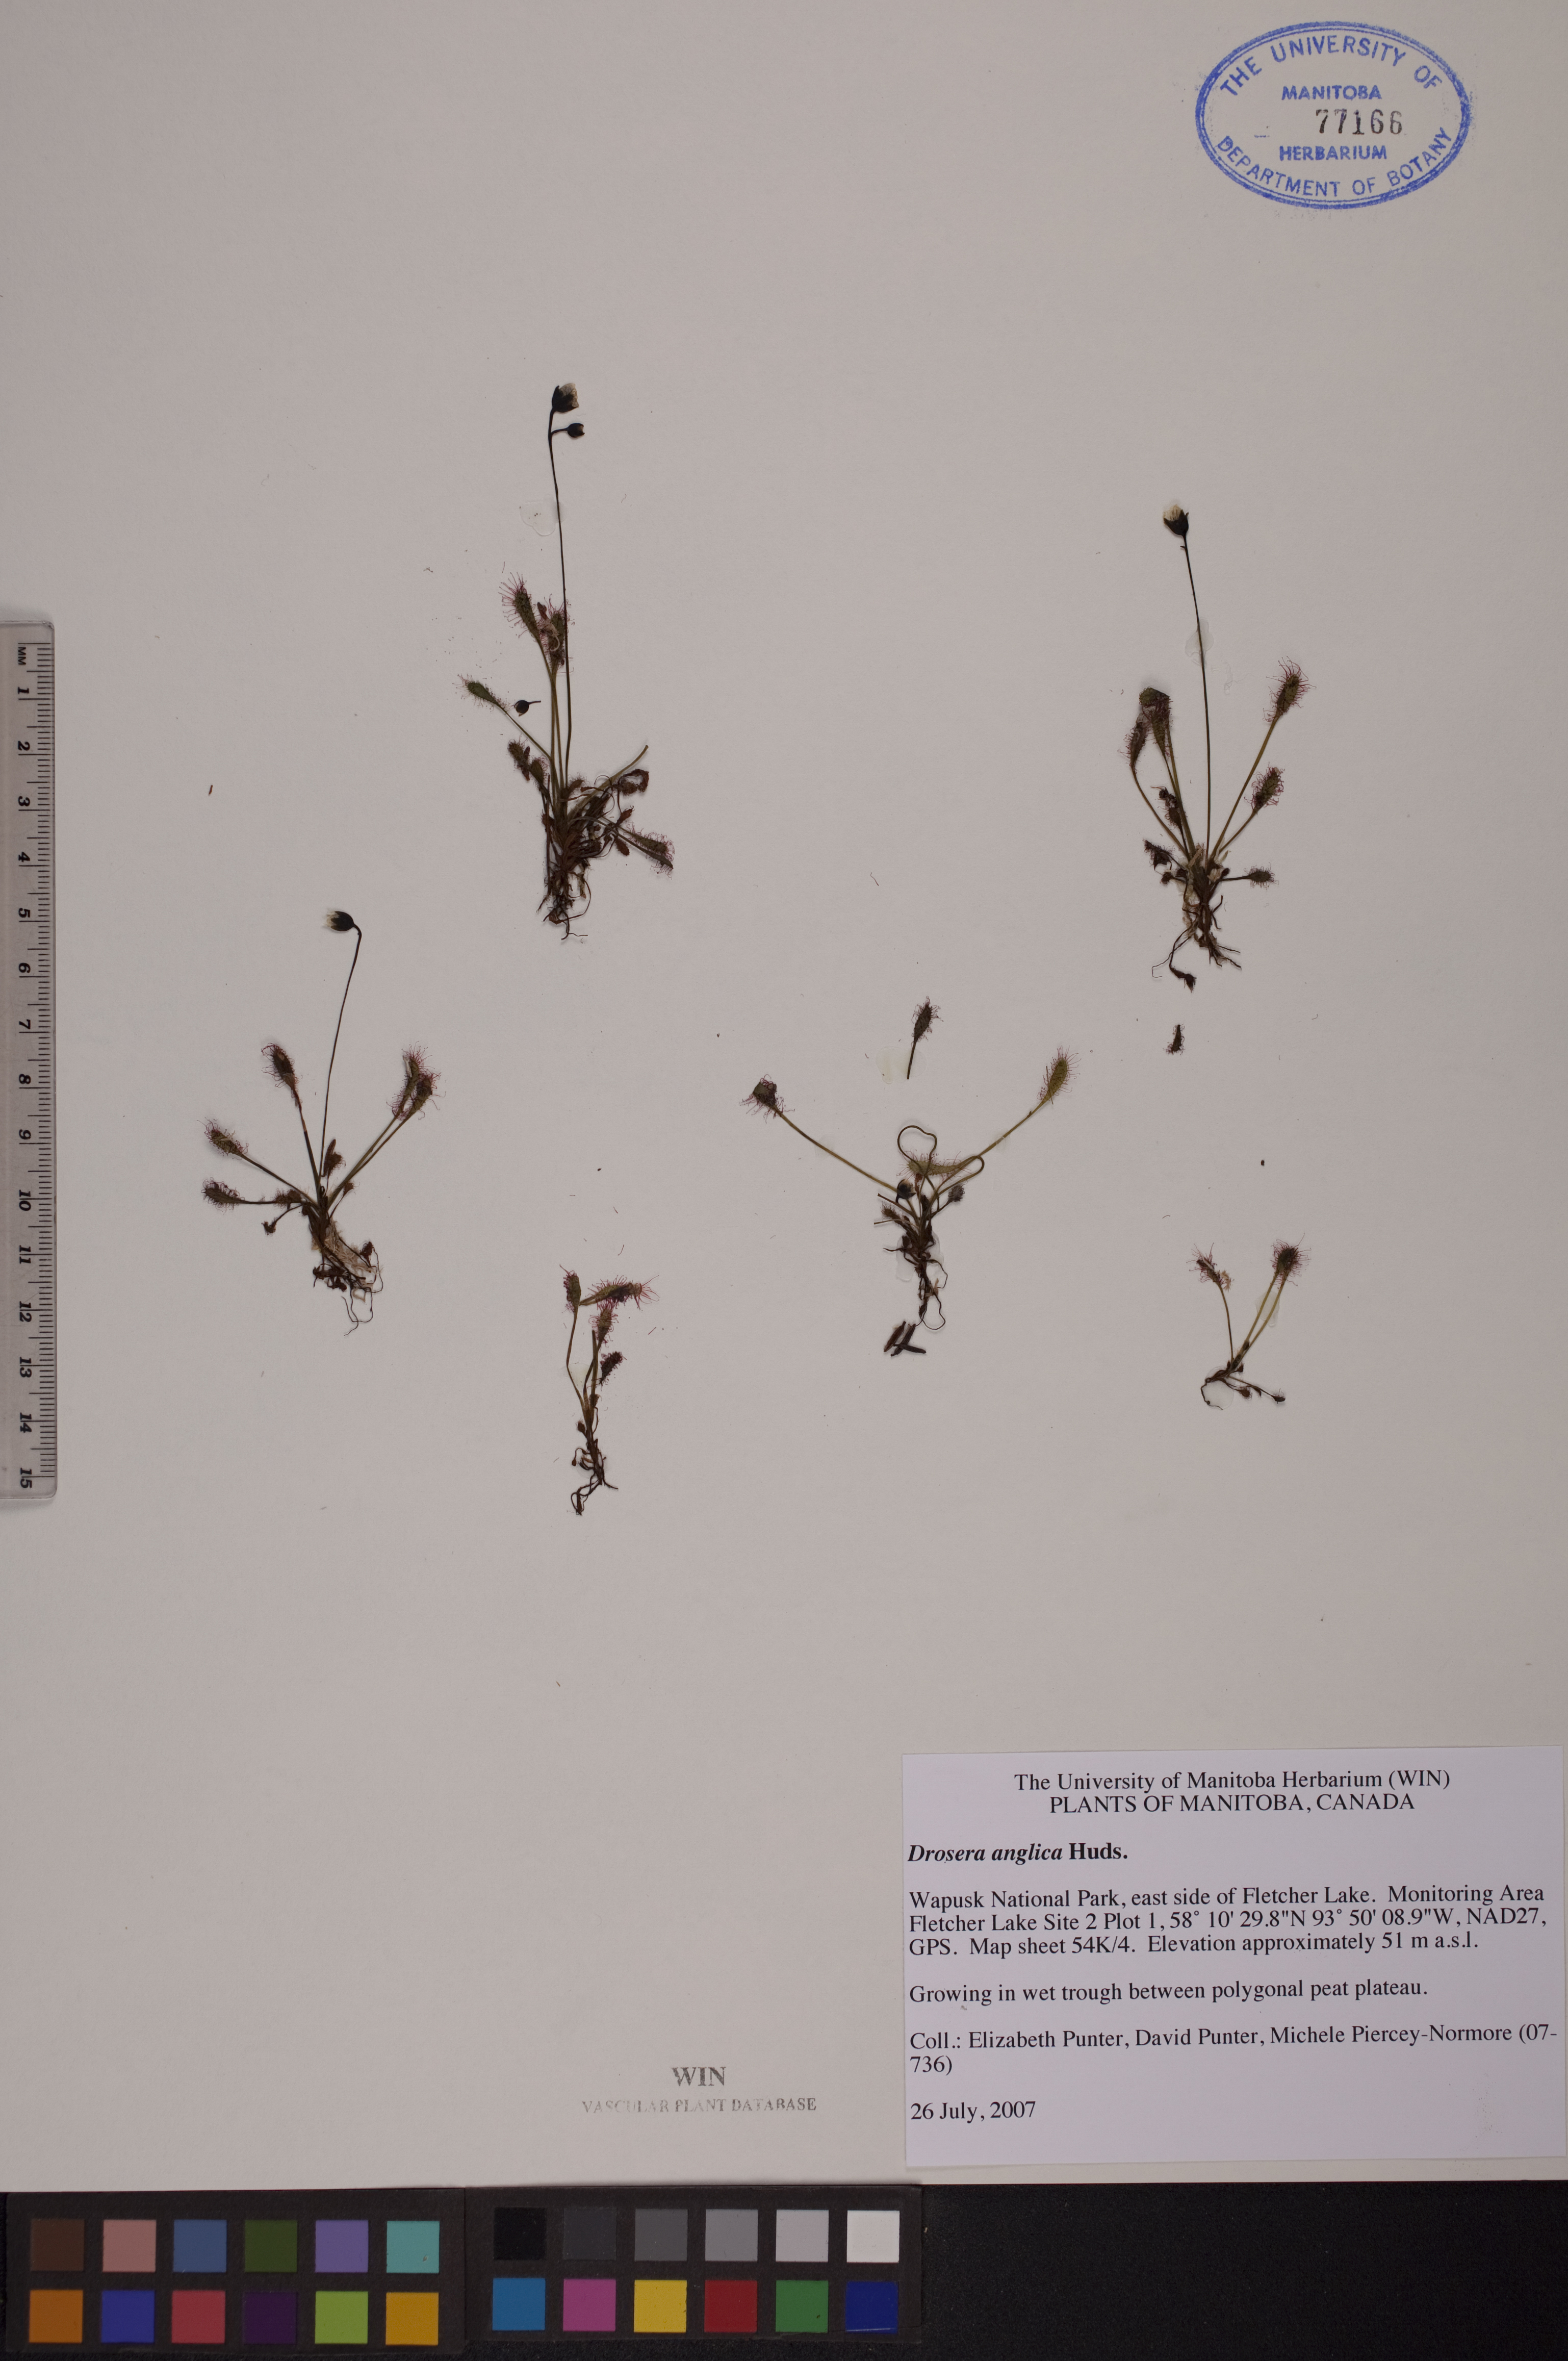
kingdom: Plantae
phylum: Tracheophyta
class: Magnoliopsida
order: Caryophyllales
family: Droseraceae
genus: Drosera
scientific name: Drosera anglica
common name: Great sundew
